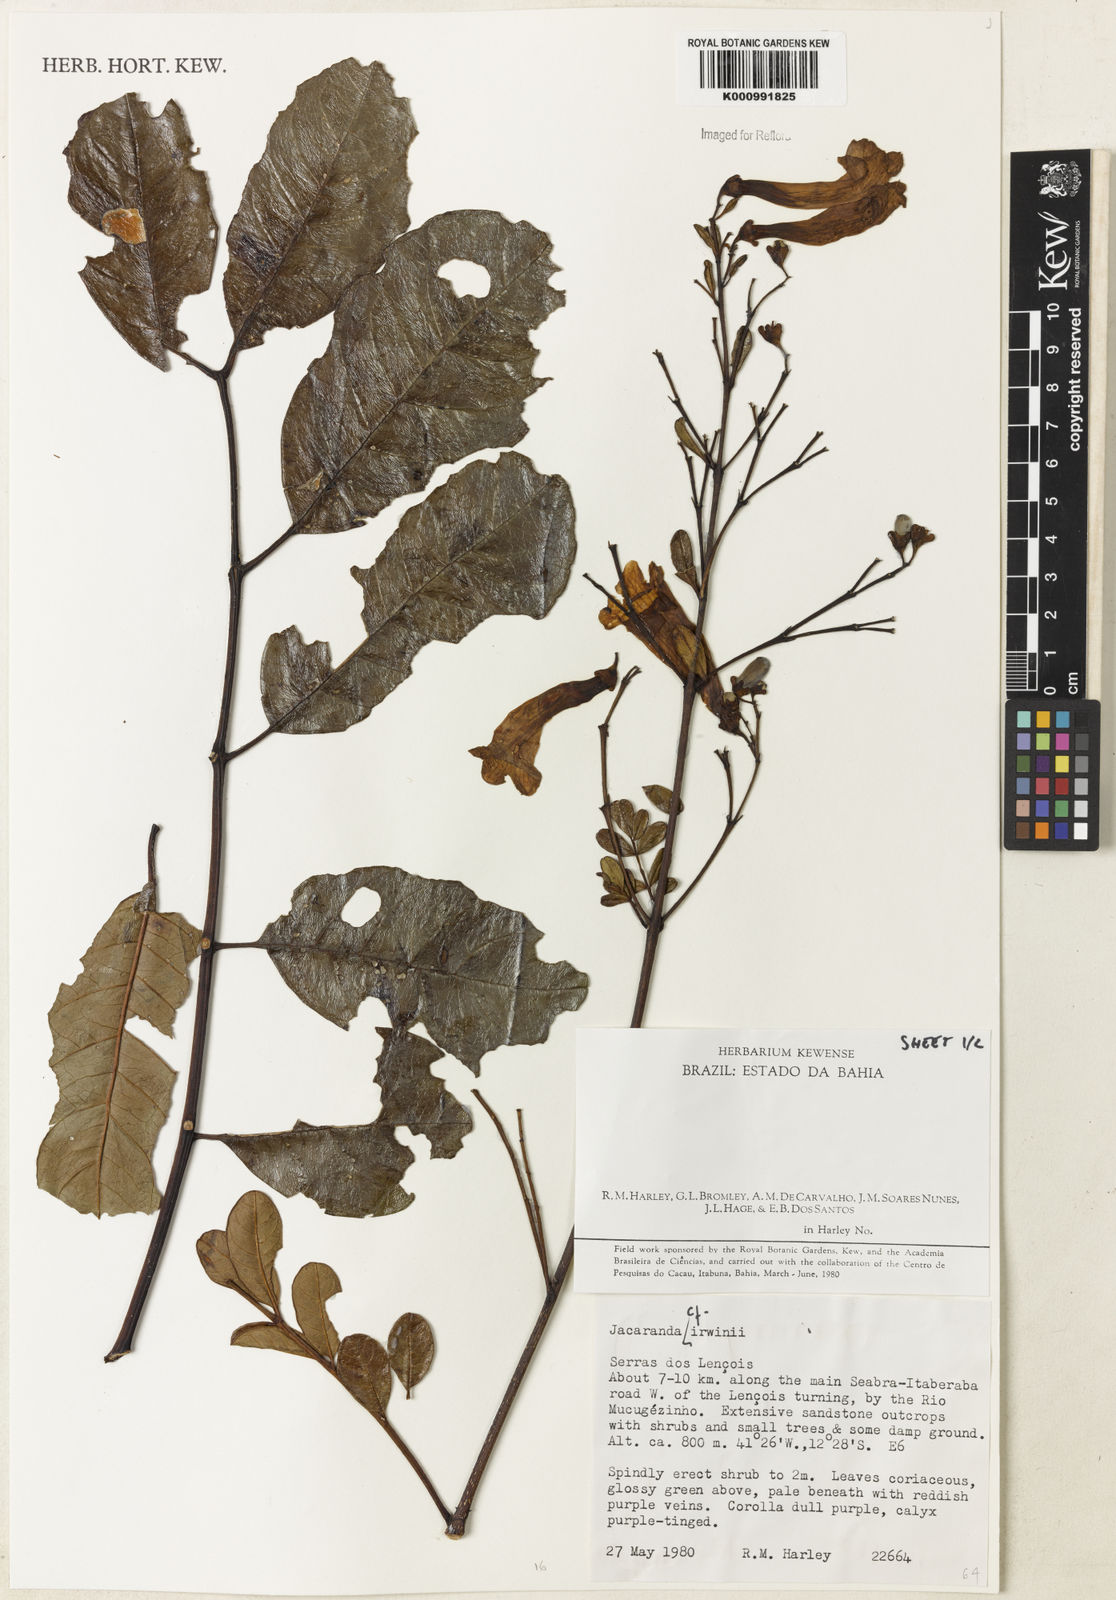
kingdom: Plantae
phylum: Tracheophyta
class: Magnoliopsida
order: Lamiales
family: Bignoniaceae
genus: Jacaranda
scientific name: Jacaranda irwinii
